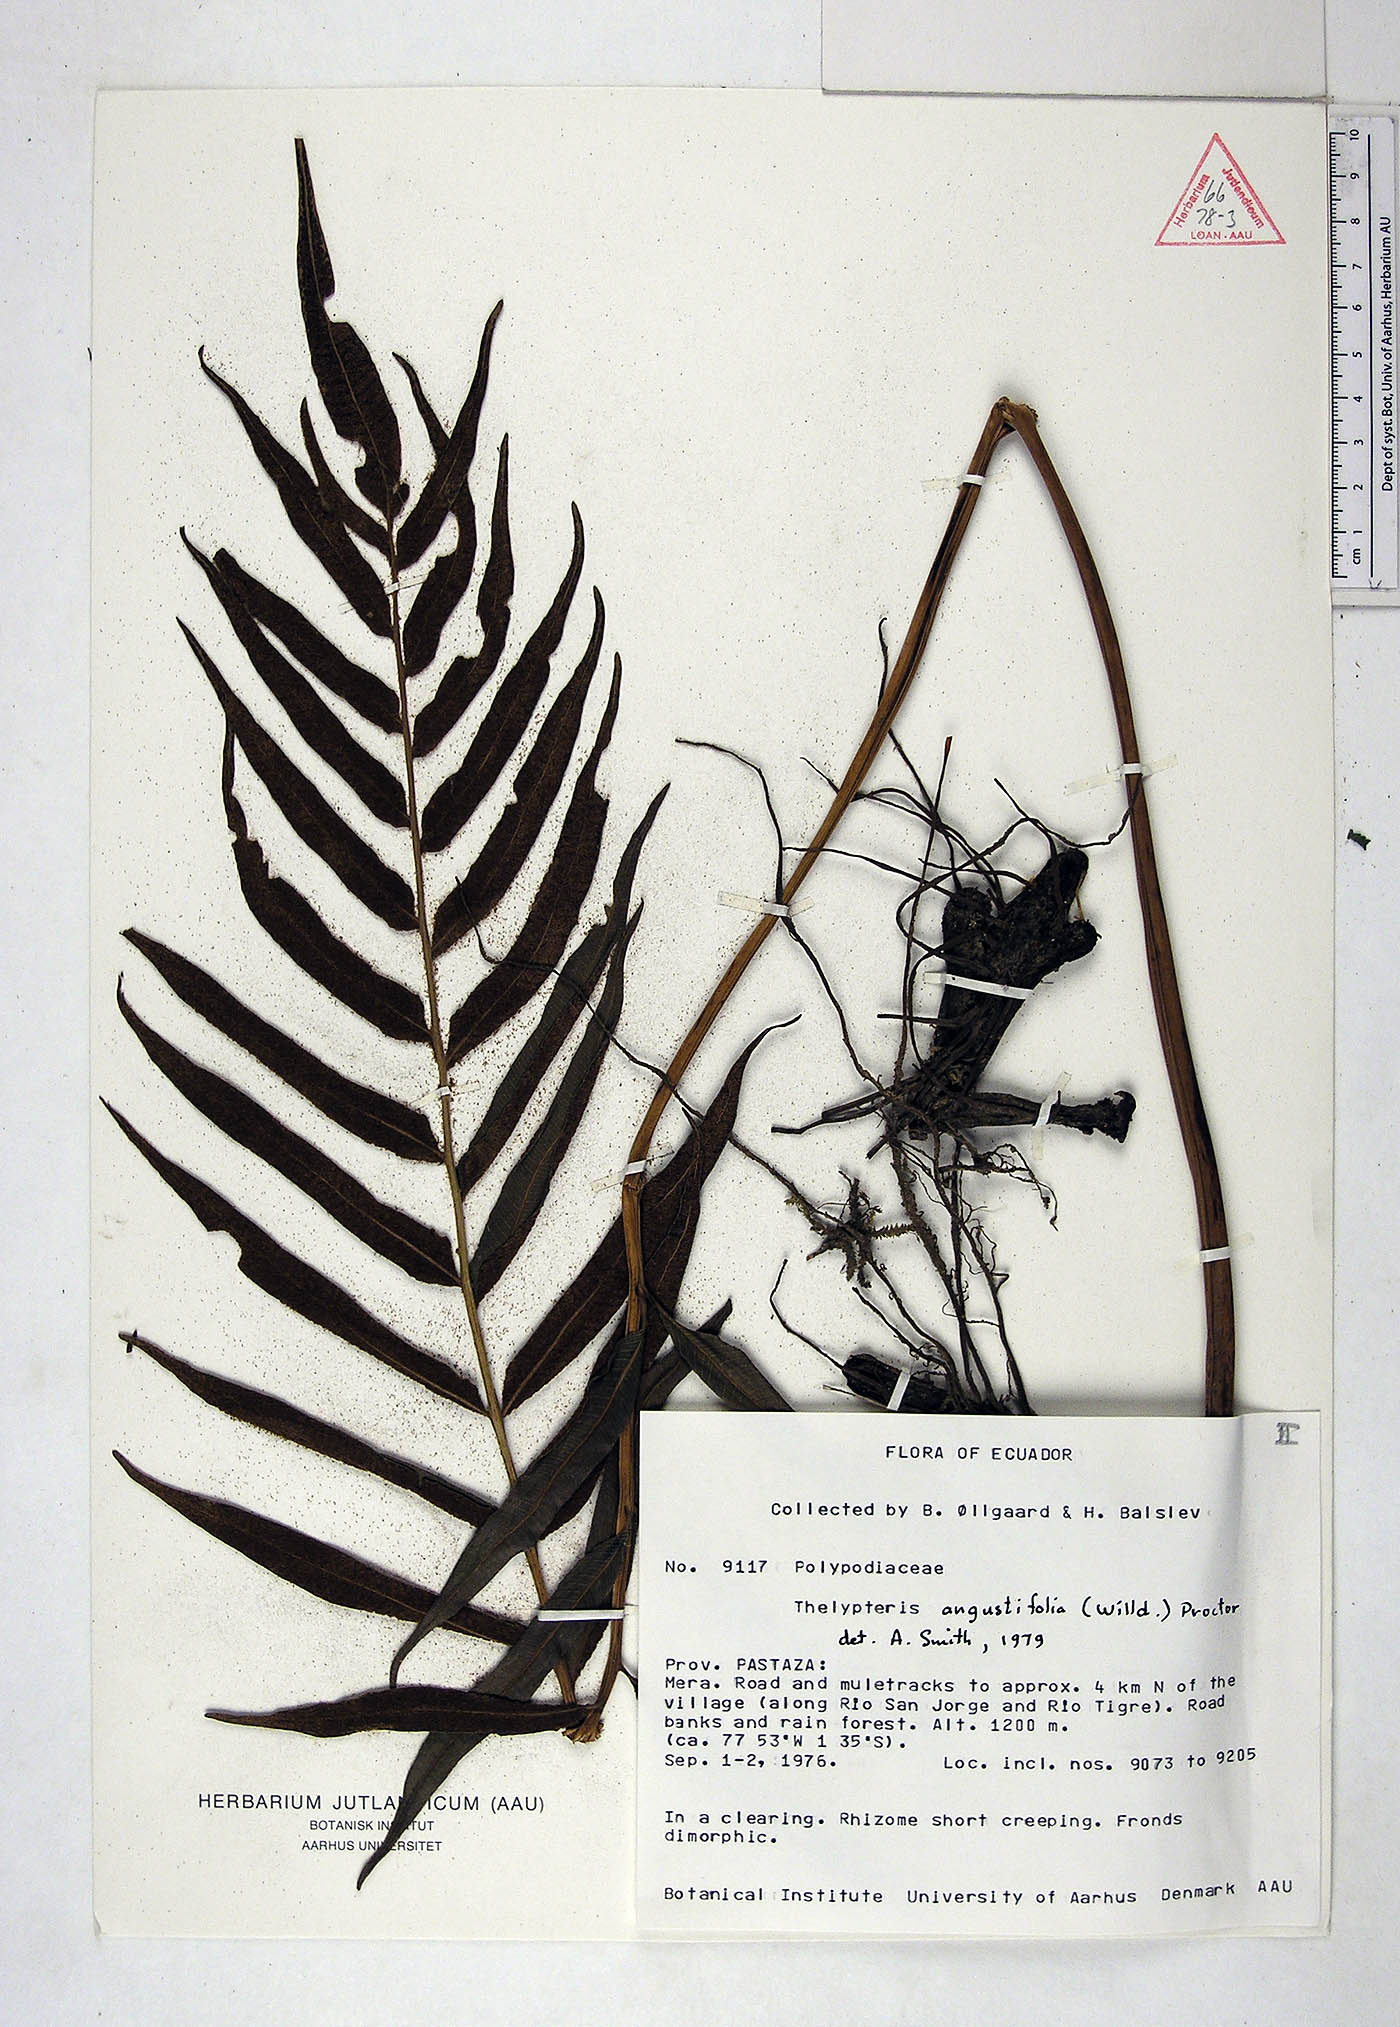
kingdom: Plantae
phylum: Tracheophyta
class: Polypodiopsida
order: Polypodiales
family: Thelypteridaceae
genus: Meniscium
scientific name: Meniscium angustifolium
